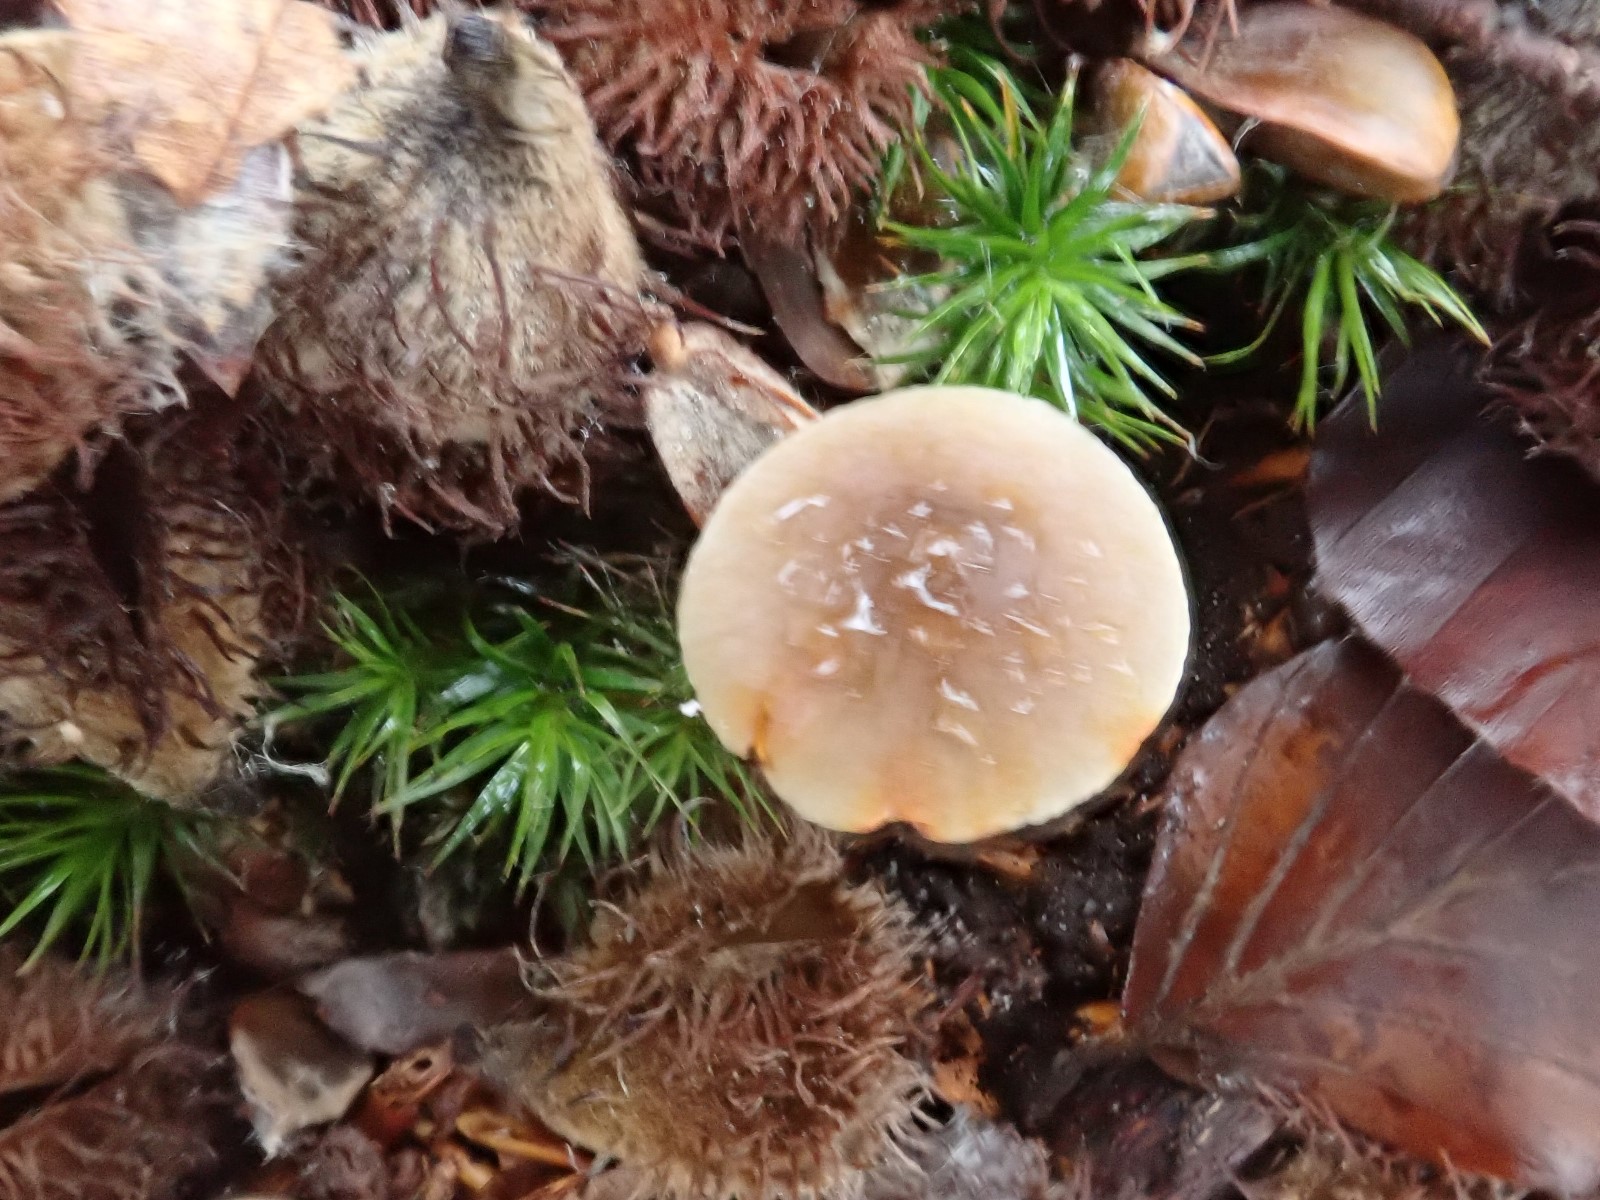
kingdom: Fungi
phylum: Basidiomycota
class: Agaricomycetes
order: Agaricales
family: Mycenaceae
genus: Mycena
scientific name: Mycena crocata
